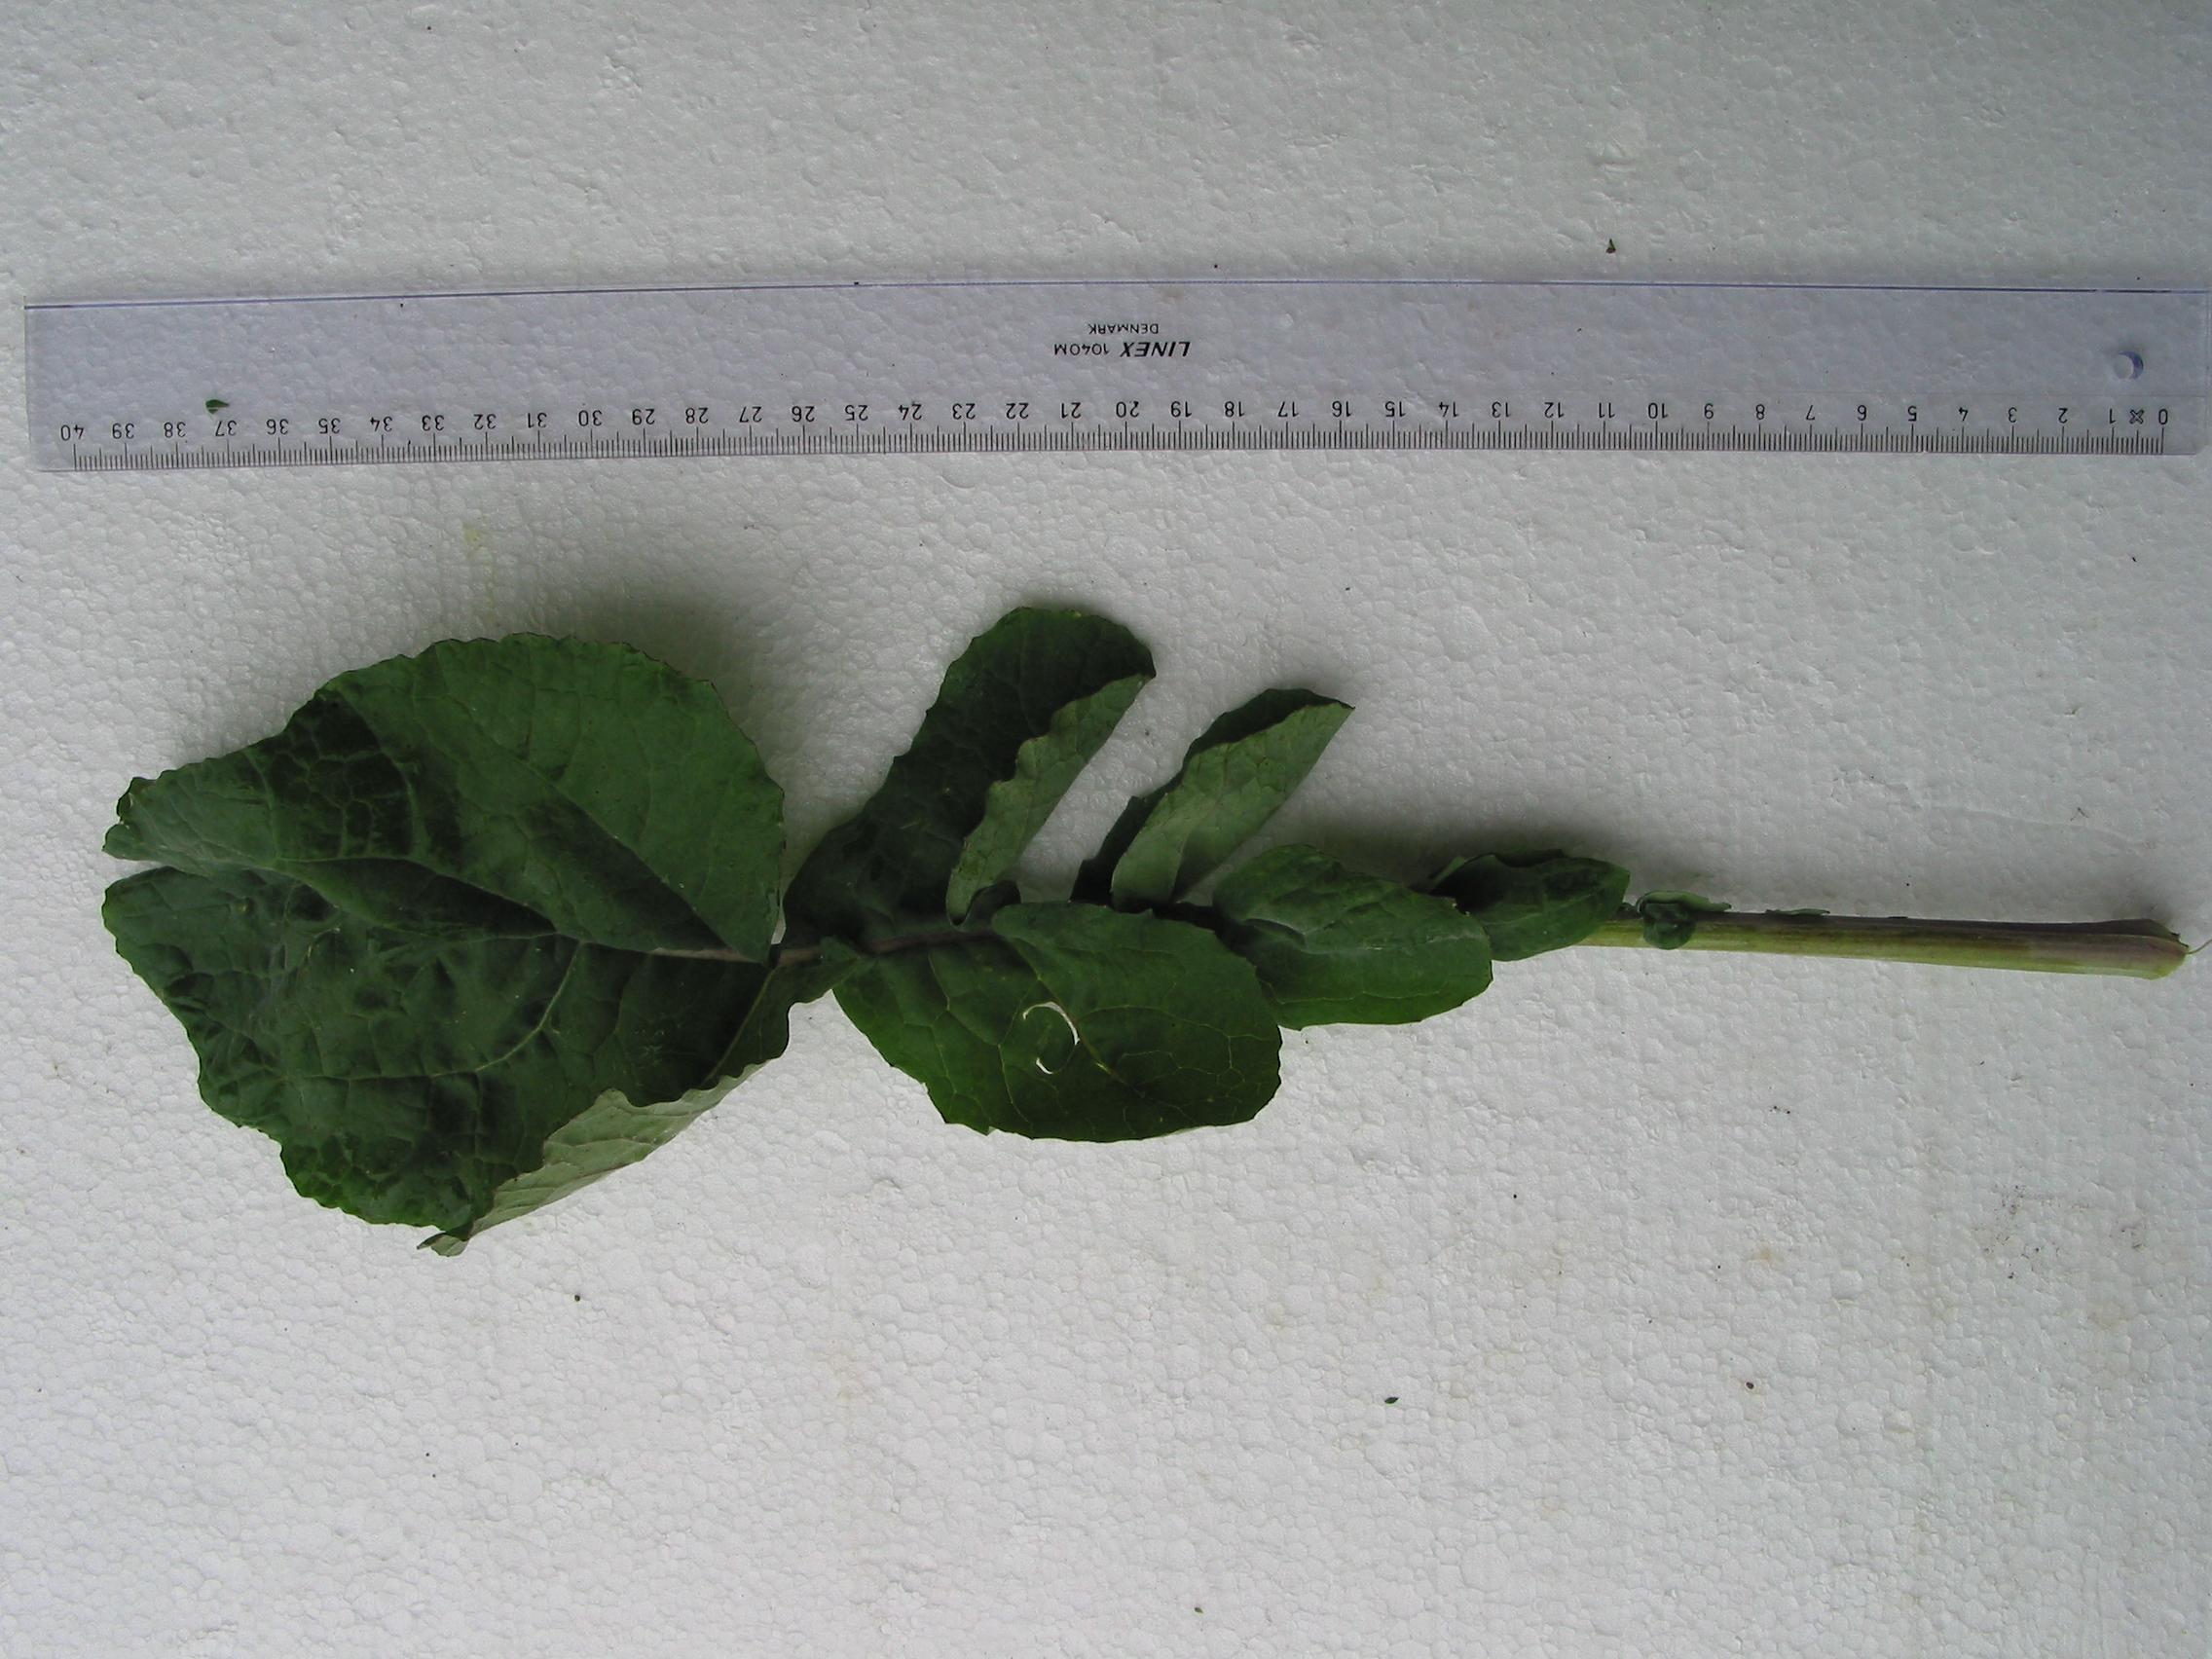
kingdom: Plantae
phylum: Tracheophyta
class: Magnoliopsida
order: Brassicales
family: Brassicaceae
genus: Brassica
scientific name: Brassica napus
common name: Rape
